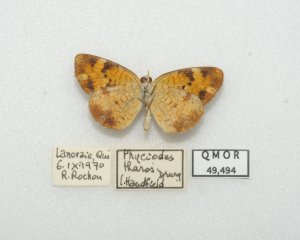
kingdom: Animalia
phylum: Arthropoda
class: Insecta
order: Lepidoptera
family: Nymphalidae
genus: Phyciodes
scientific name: Phyciodes tharos
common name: Northern Crescent
